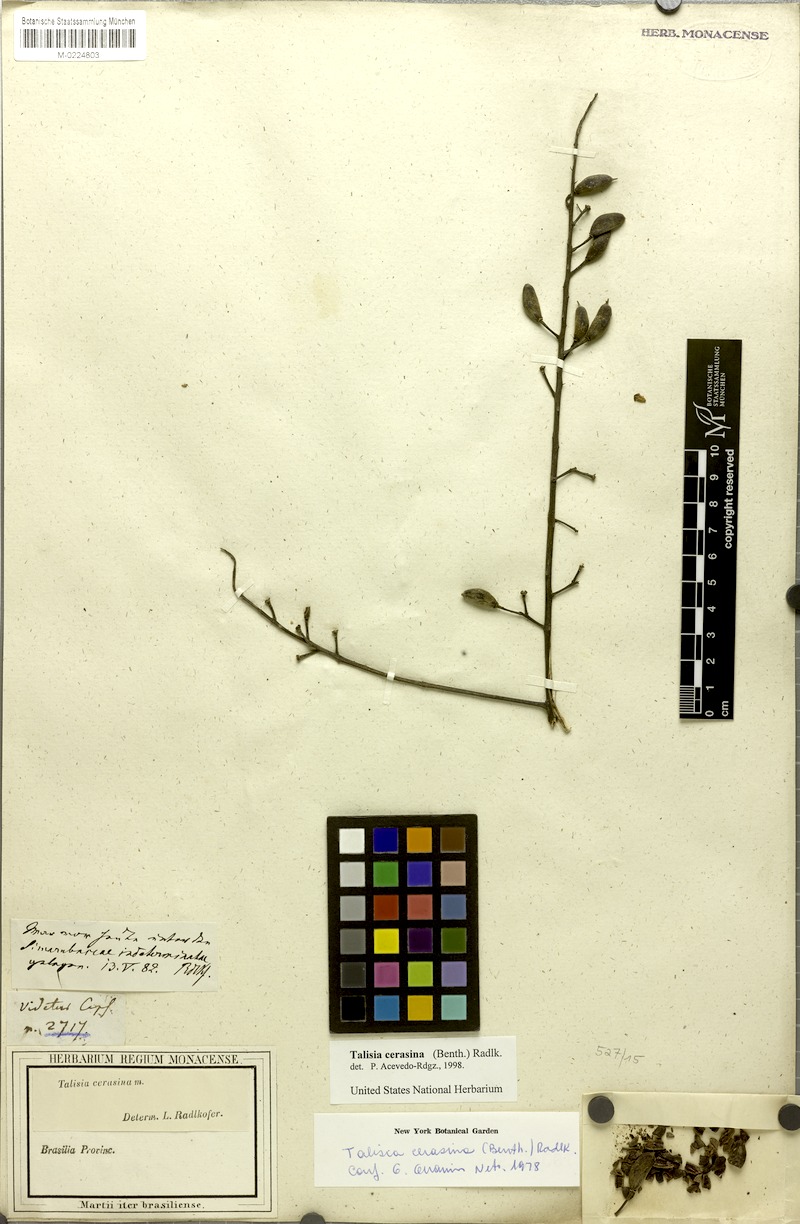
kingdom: Plantae
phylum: Tracheophyta
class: Magnoliopsida
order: Sapindales
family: Sapindaceae
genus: Talisia
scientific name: Talisia cerasina
